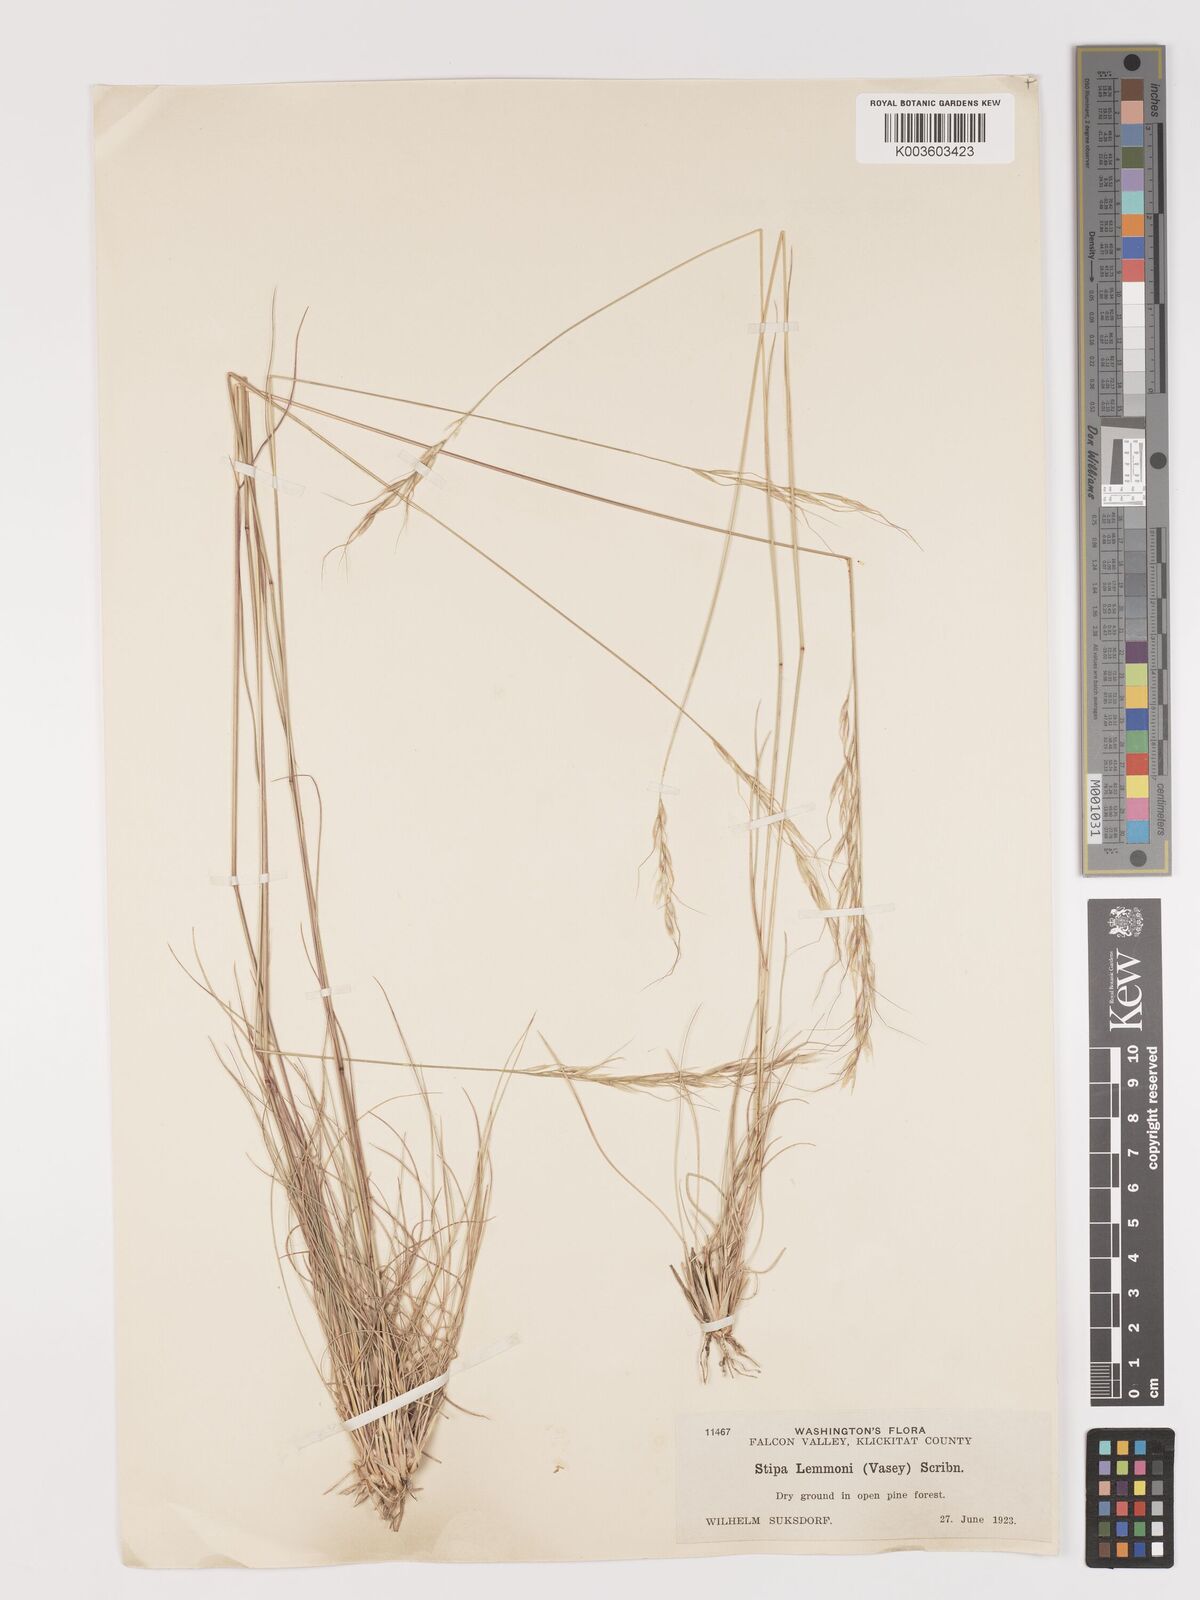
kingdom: Plantae
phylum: Tracheophyta
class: Liliopsida
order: Poales
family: Poaceae
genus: Eriocoma
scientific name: Eriocoma lemmonii
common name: Lemmon's needlegrass
